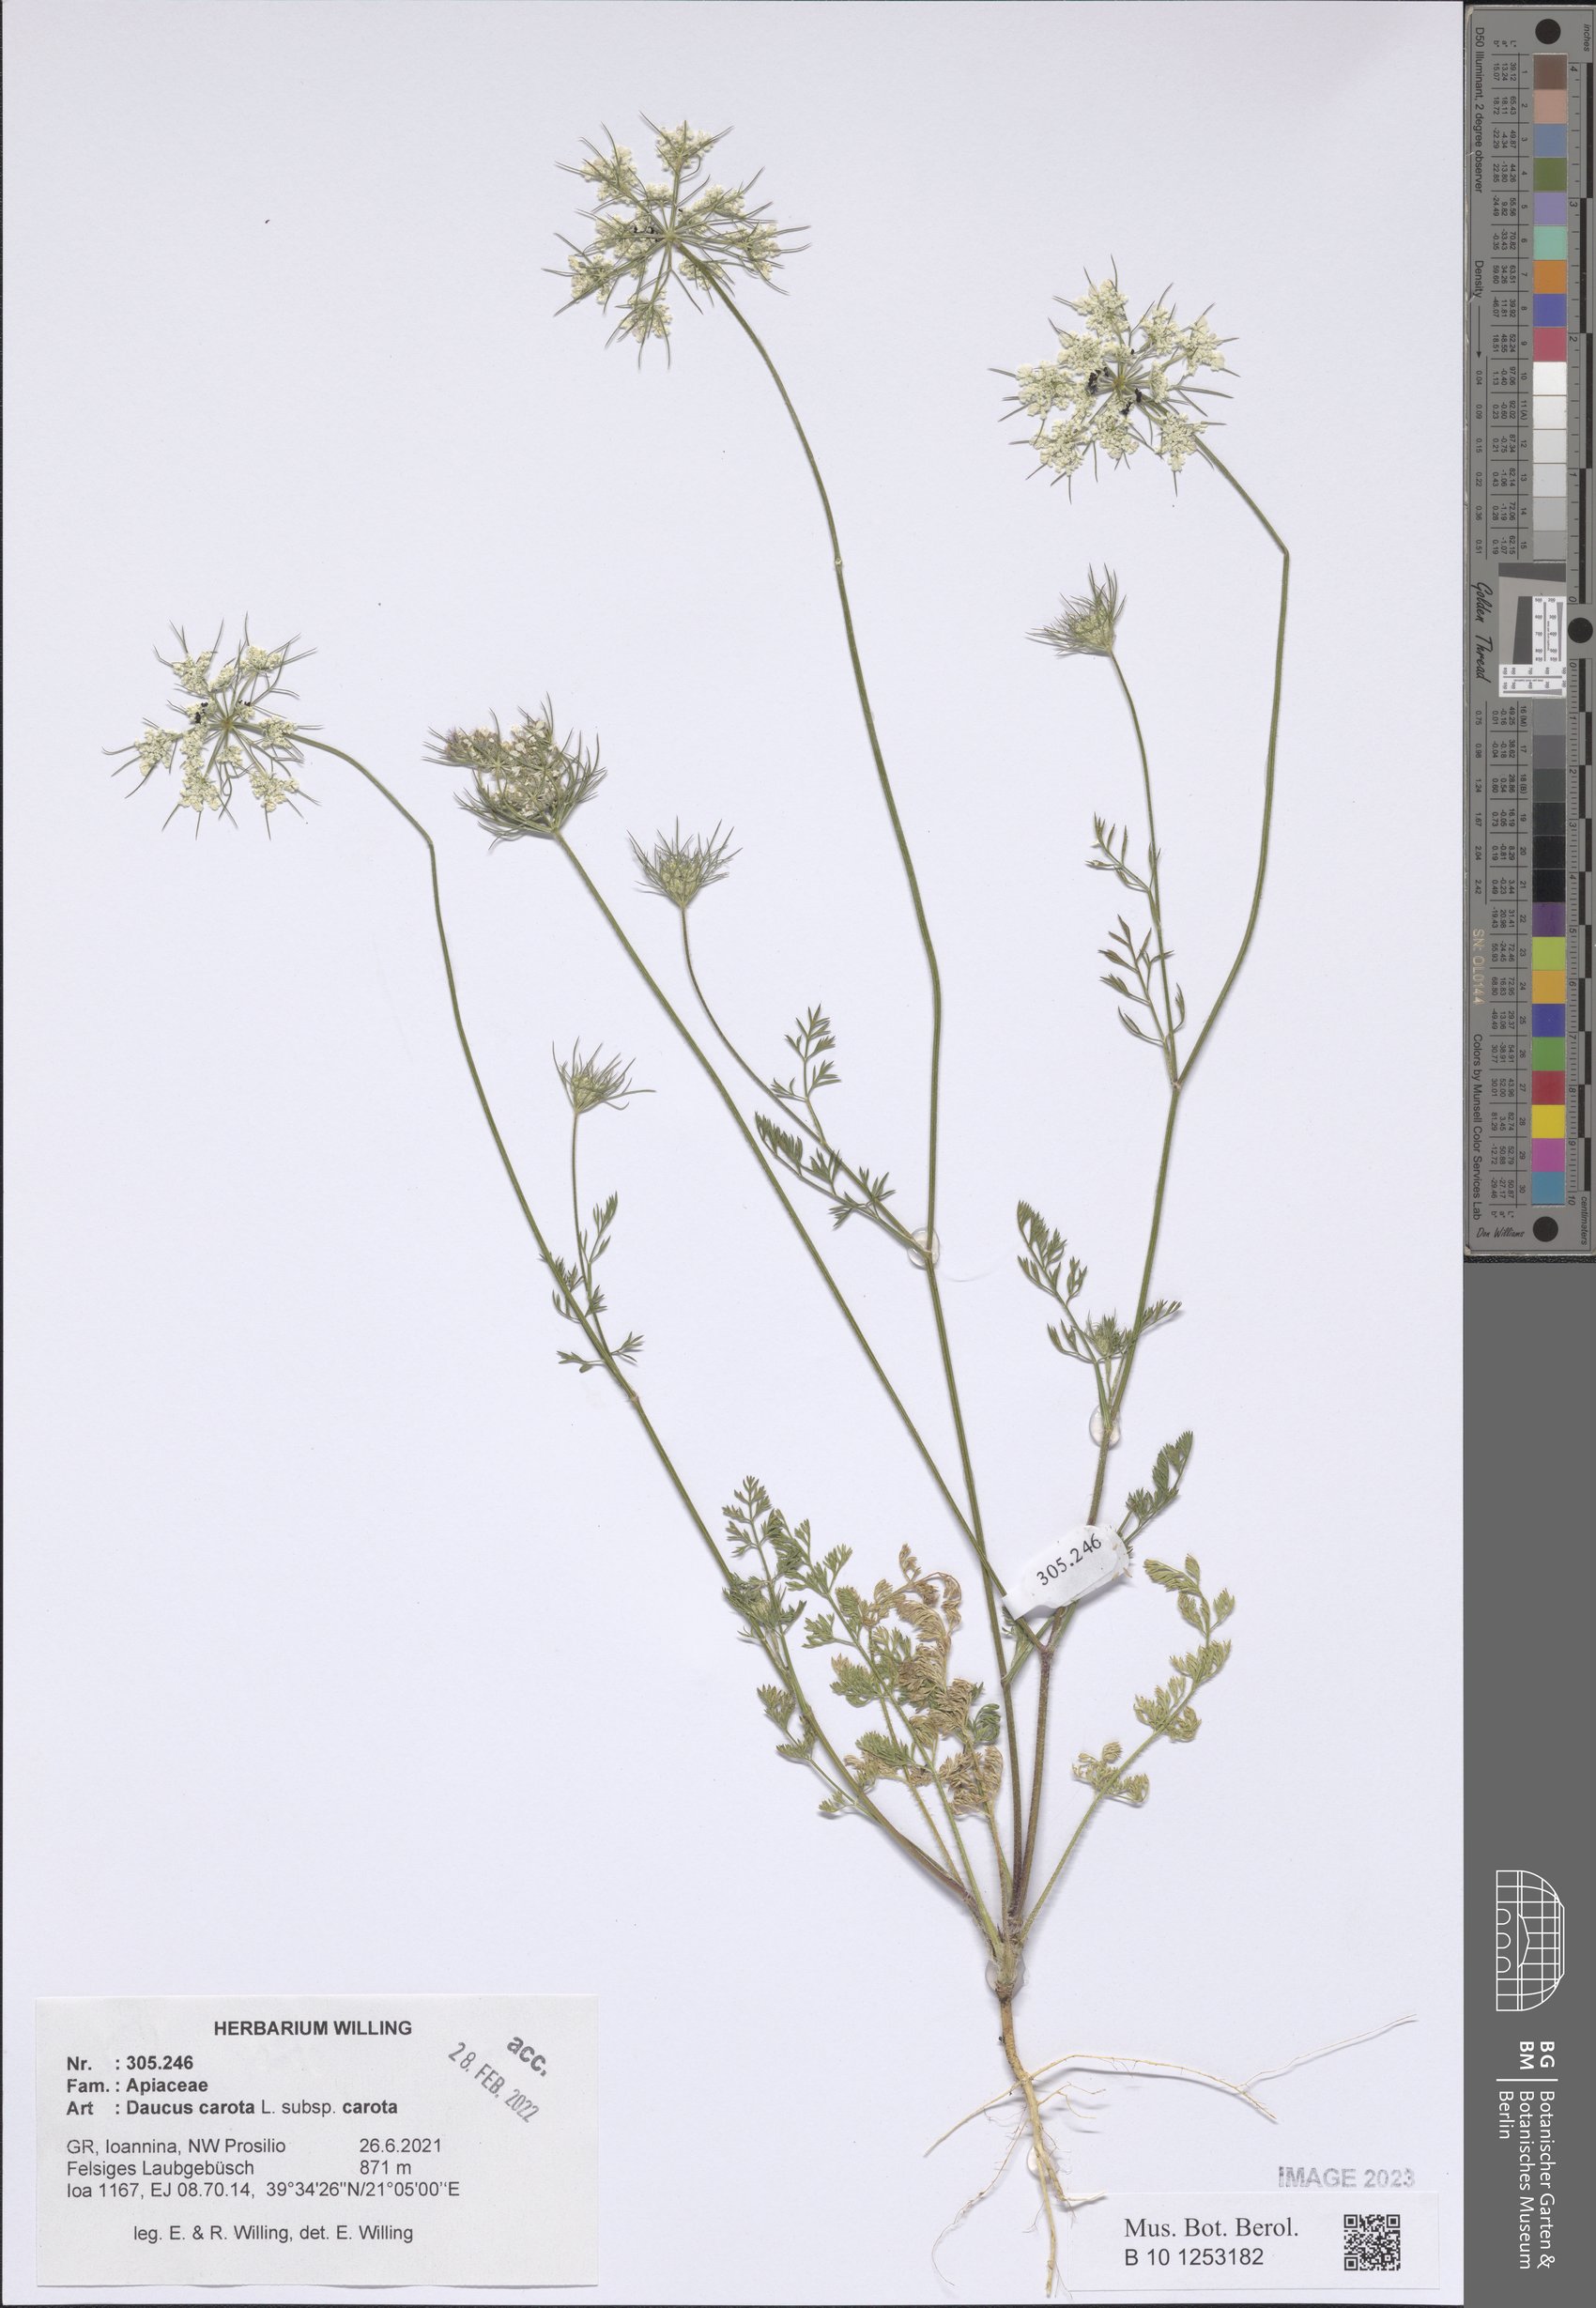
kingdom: Plantae
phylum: Tracheophyta
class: Magnoliopsida
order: Apiales
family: Apiaceae
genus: Daucus
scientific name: Daucus carota
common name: Wild carrot
